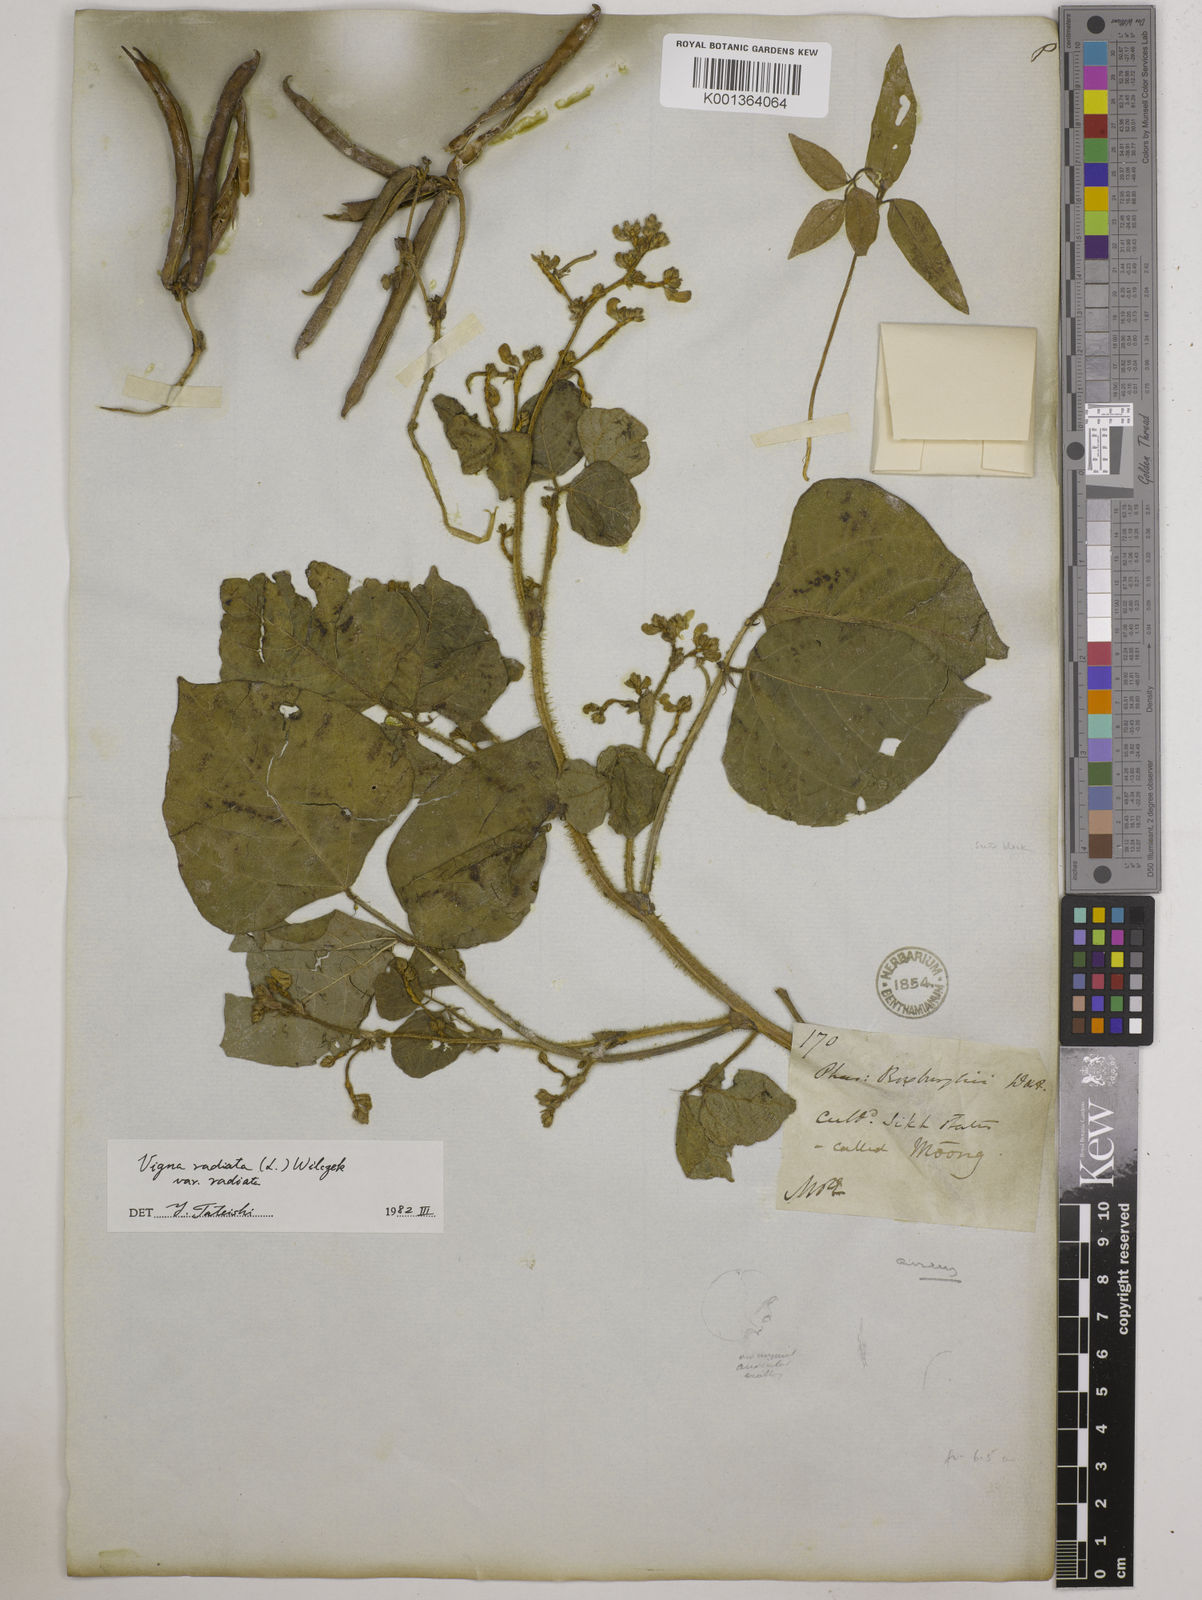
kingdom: Plantae
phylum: Tracheophyta
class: Magnoliopsida
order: Fabales
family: Fabaceae
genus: Vigna
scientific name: Vigna radiata
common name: Mung-bean
